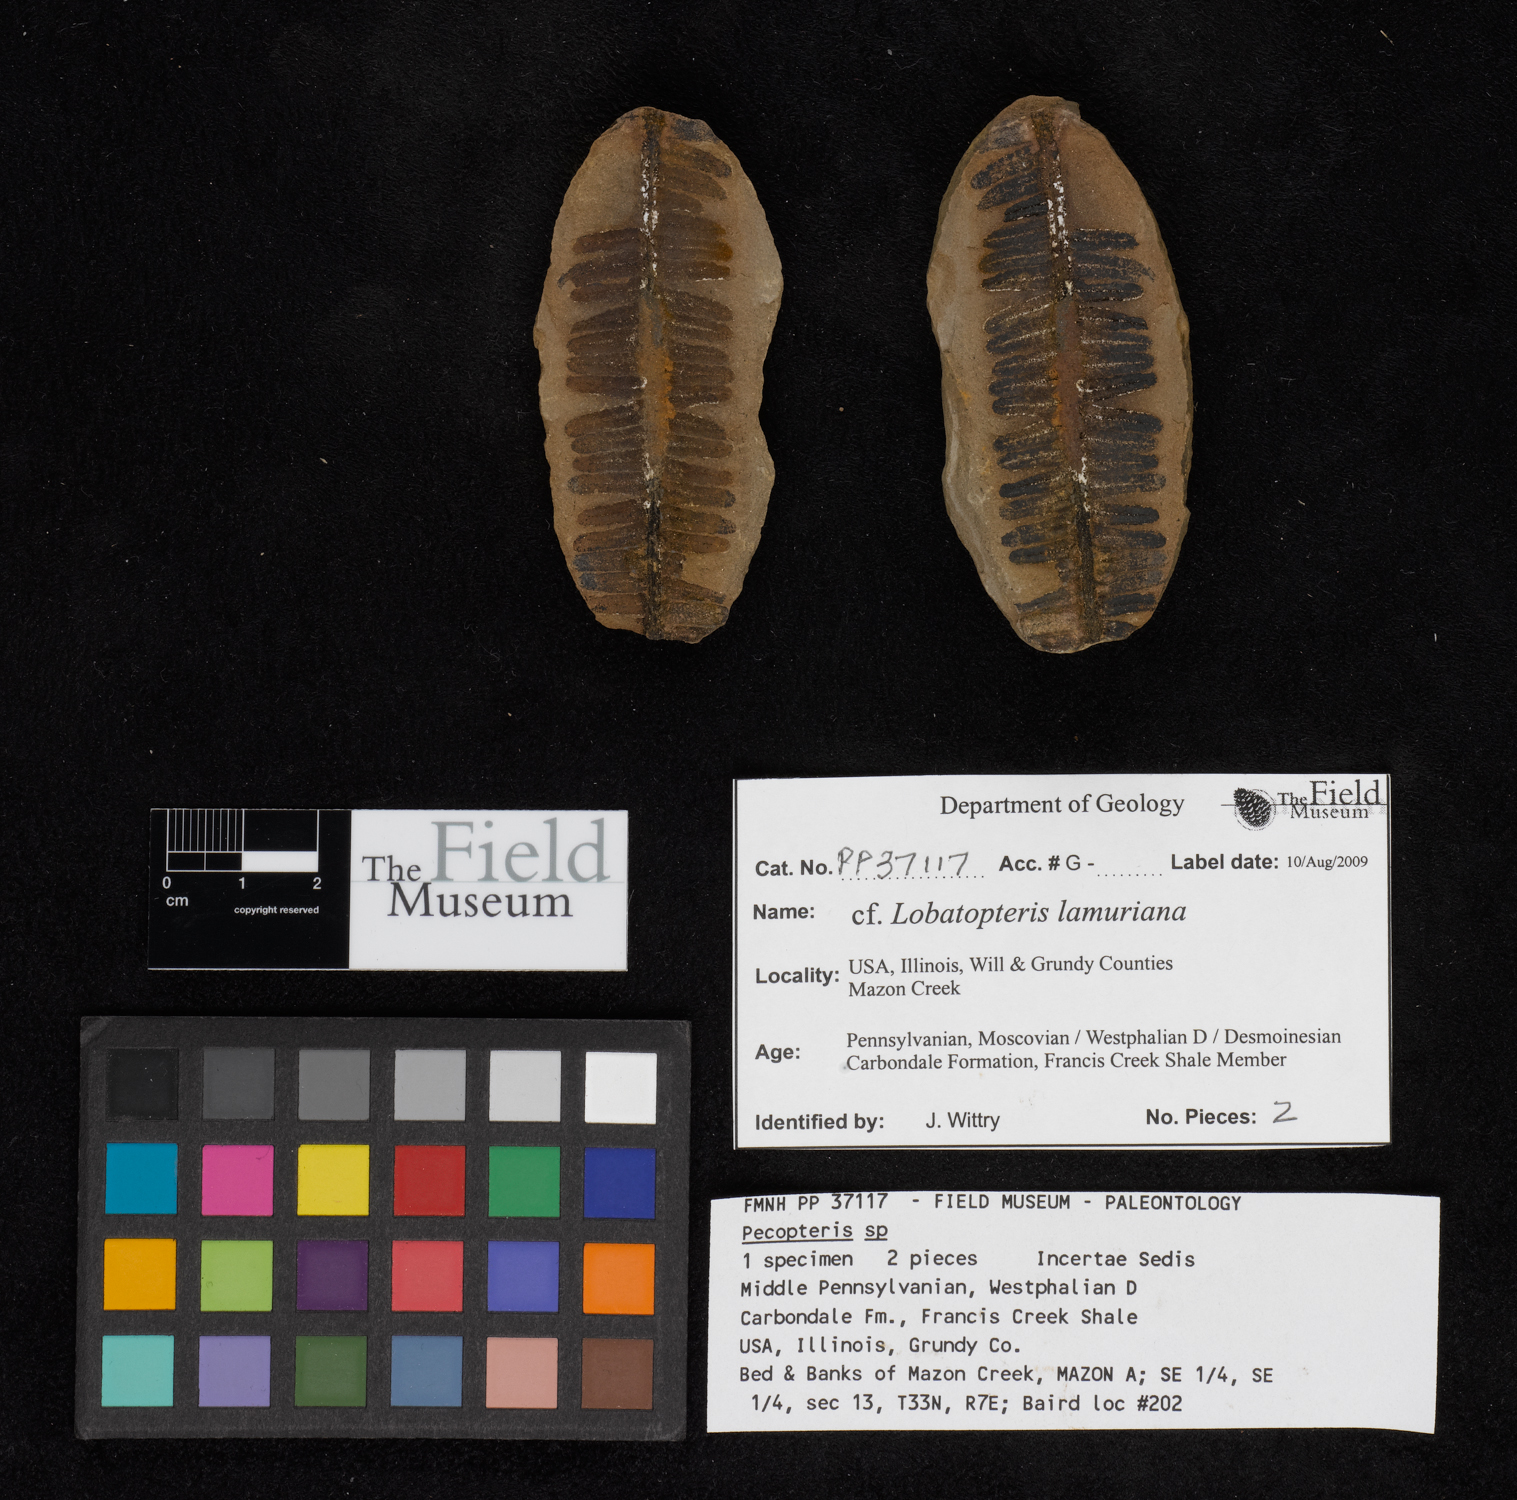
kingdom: Plantae
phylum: Tracheophyta
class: Polypodiopsida
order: Marattiales
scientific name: Marattiales
